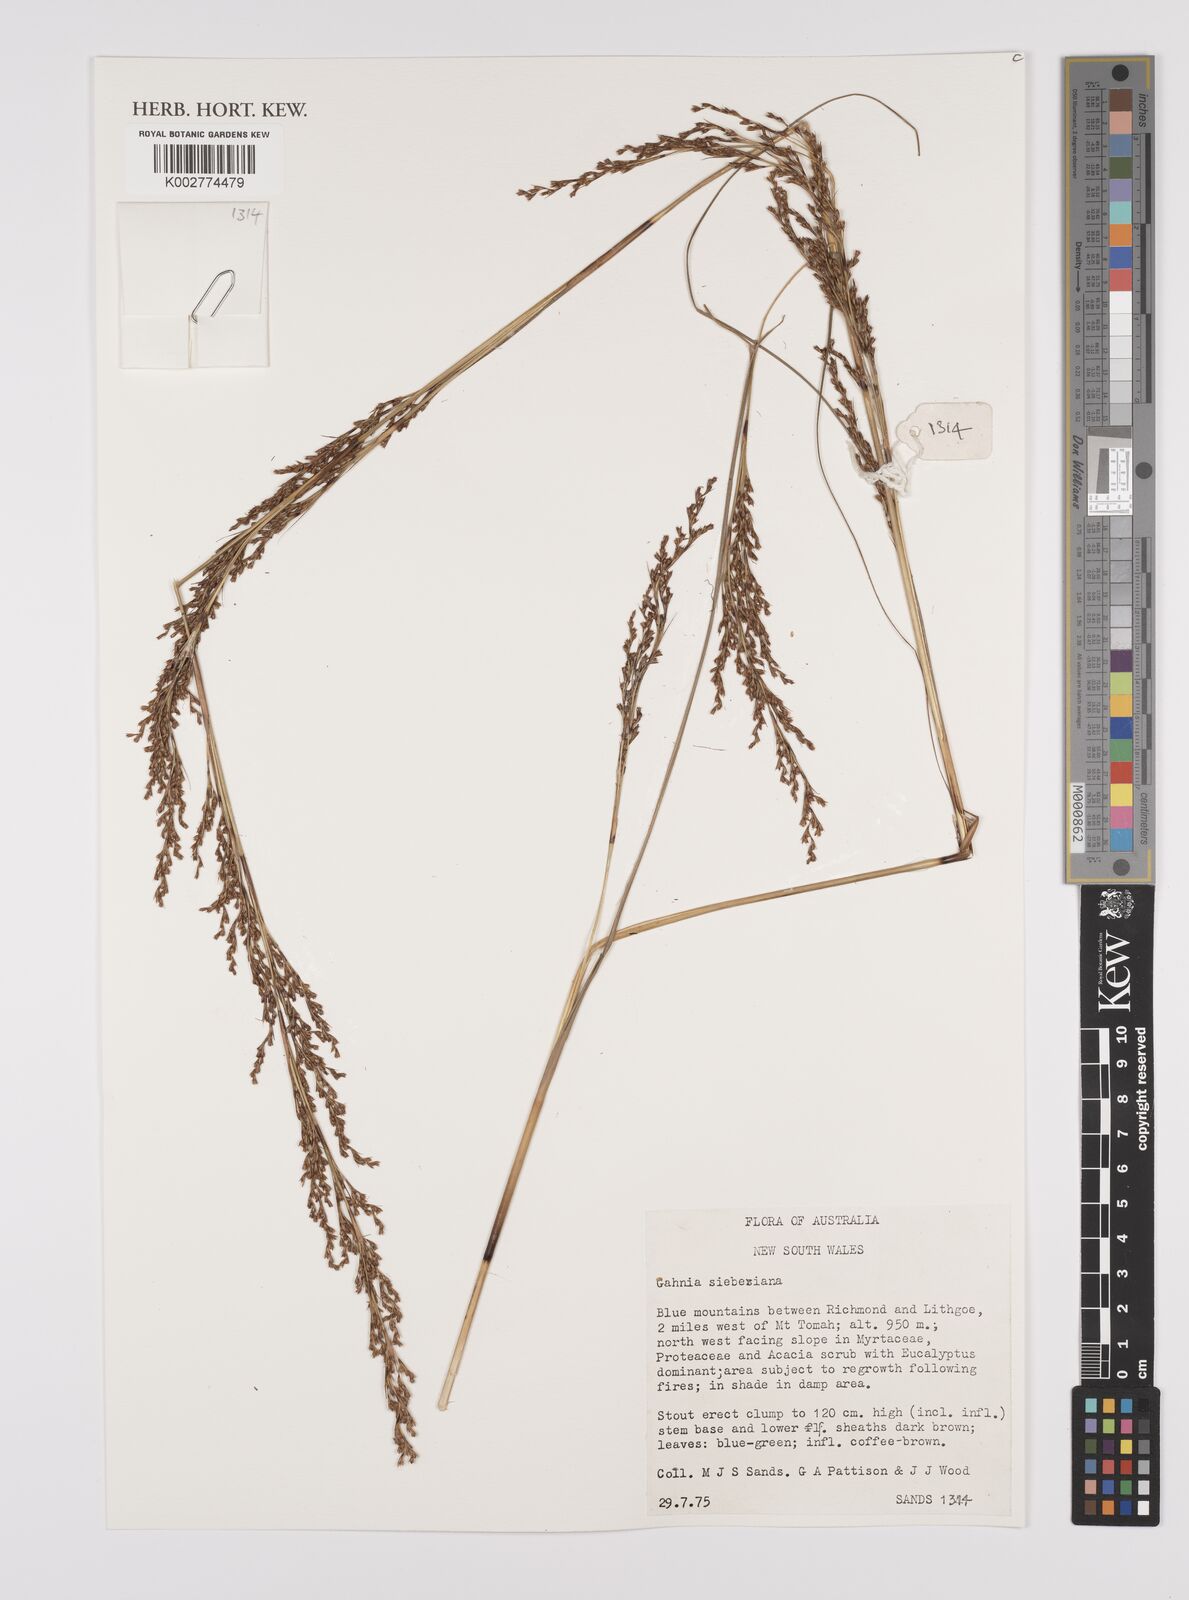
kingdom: Plantae
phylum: Tracheophyta
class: Liliopsida
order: Poales
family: Cyperaceae
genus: Gahnia
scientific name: Gahnia sieberiana
